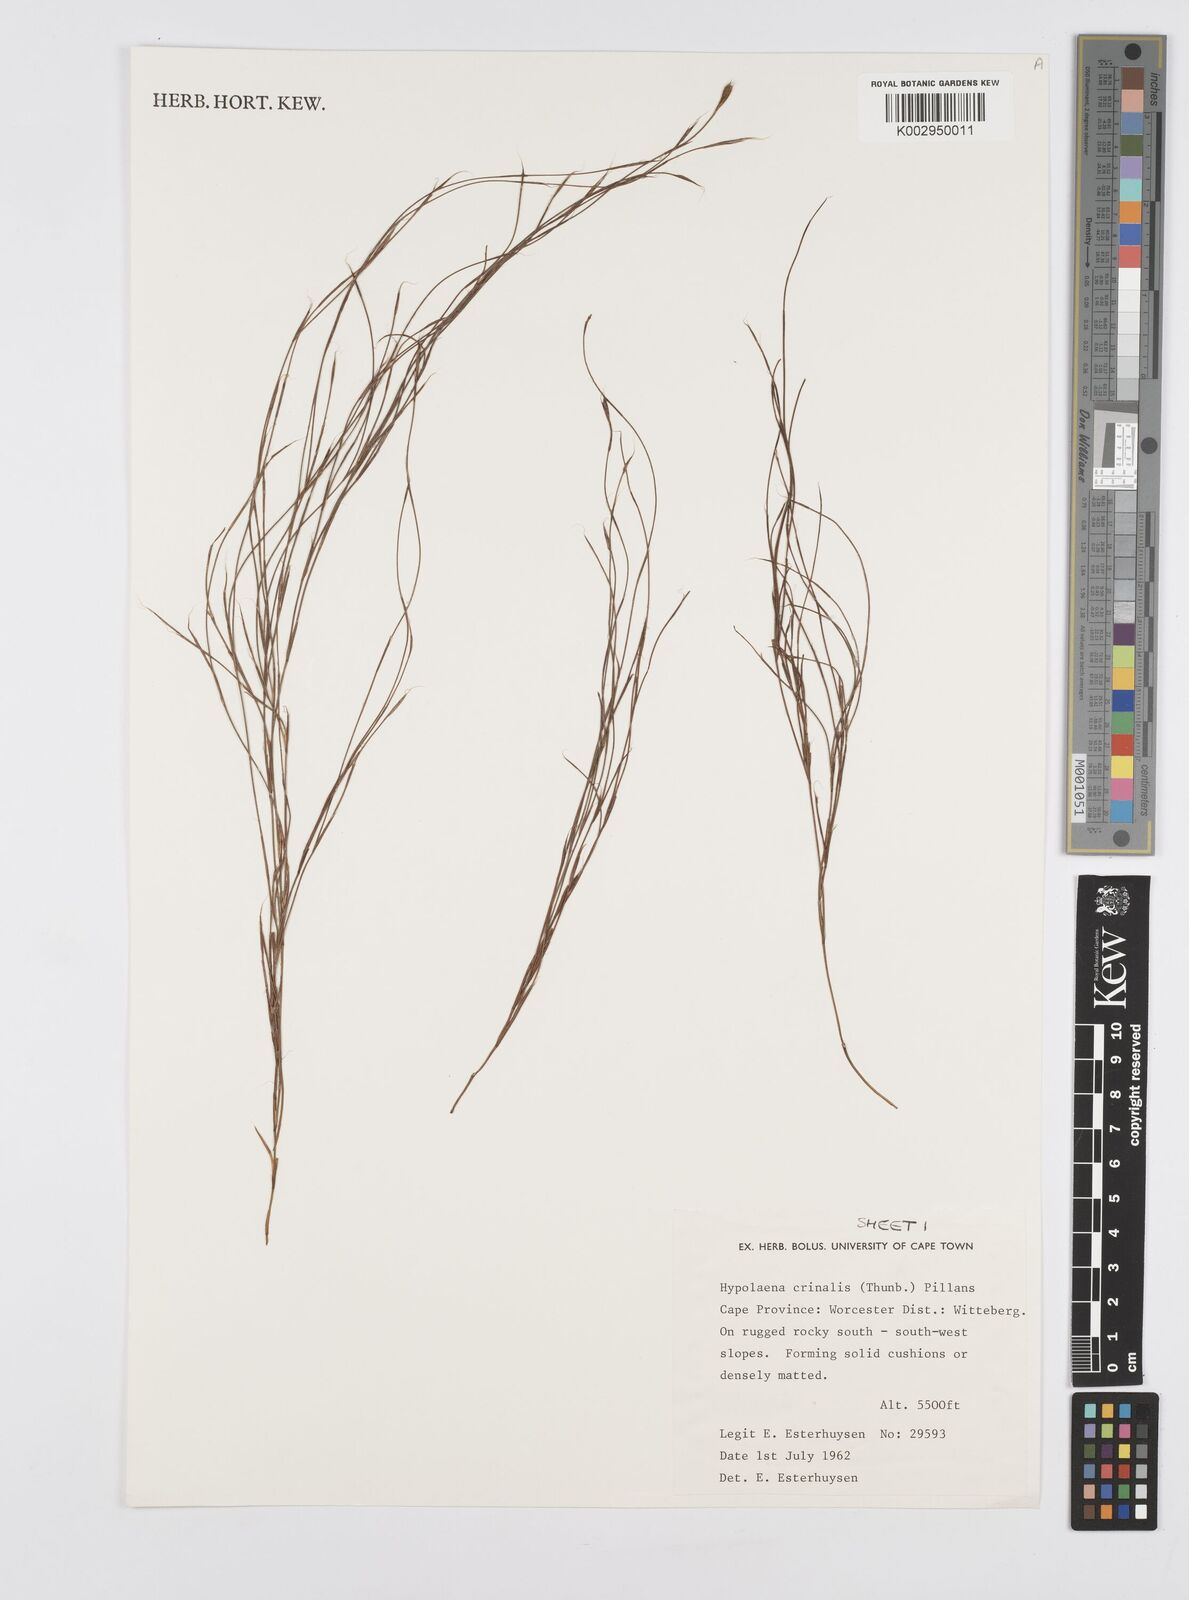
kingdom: Plantae
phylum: Tracheophyta
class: Liliopsida
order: Poales
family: Restionaceae
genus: Anthochortus
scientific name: Anthochortus crinalis
